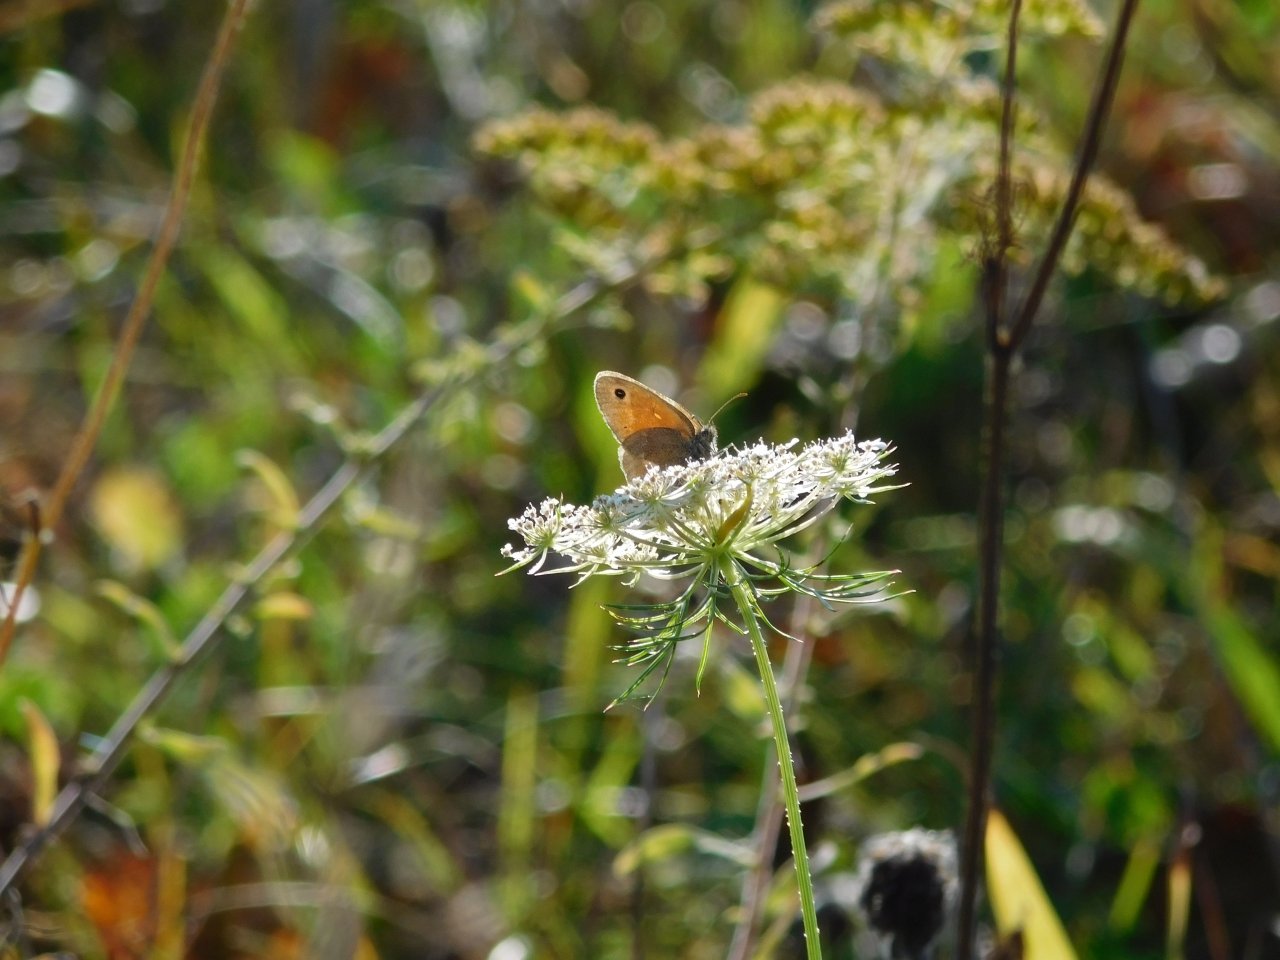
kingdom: Animalia
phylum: Arthropoda
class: Insecta
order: Lepidoptera
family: Nymphalidae
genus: Coenonympha
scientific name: Coenonympha tullia
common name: Large Heath
